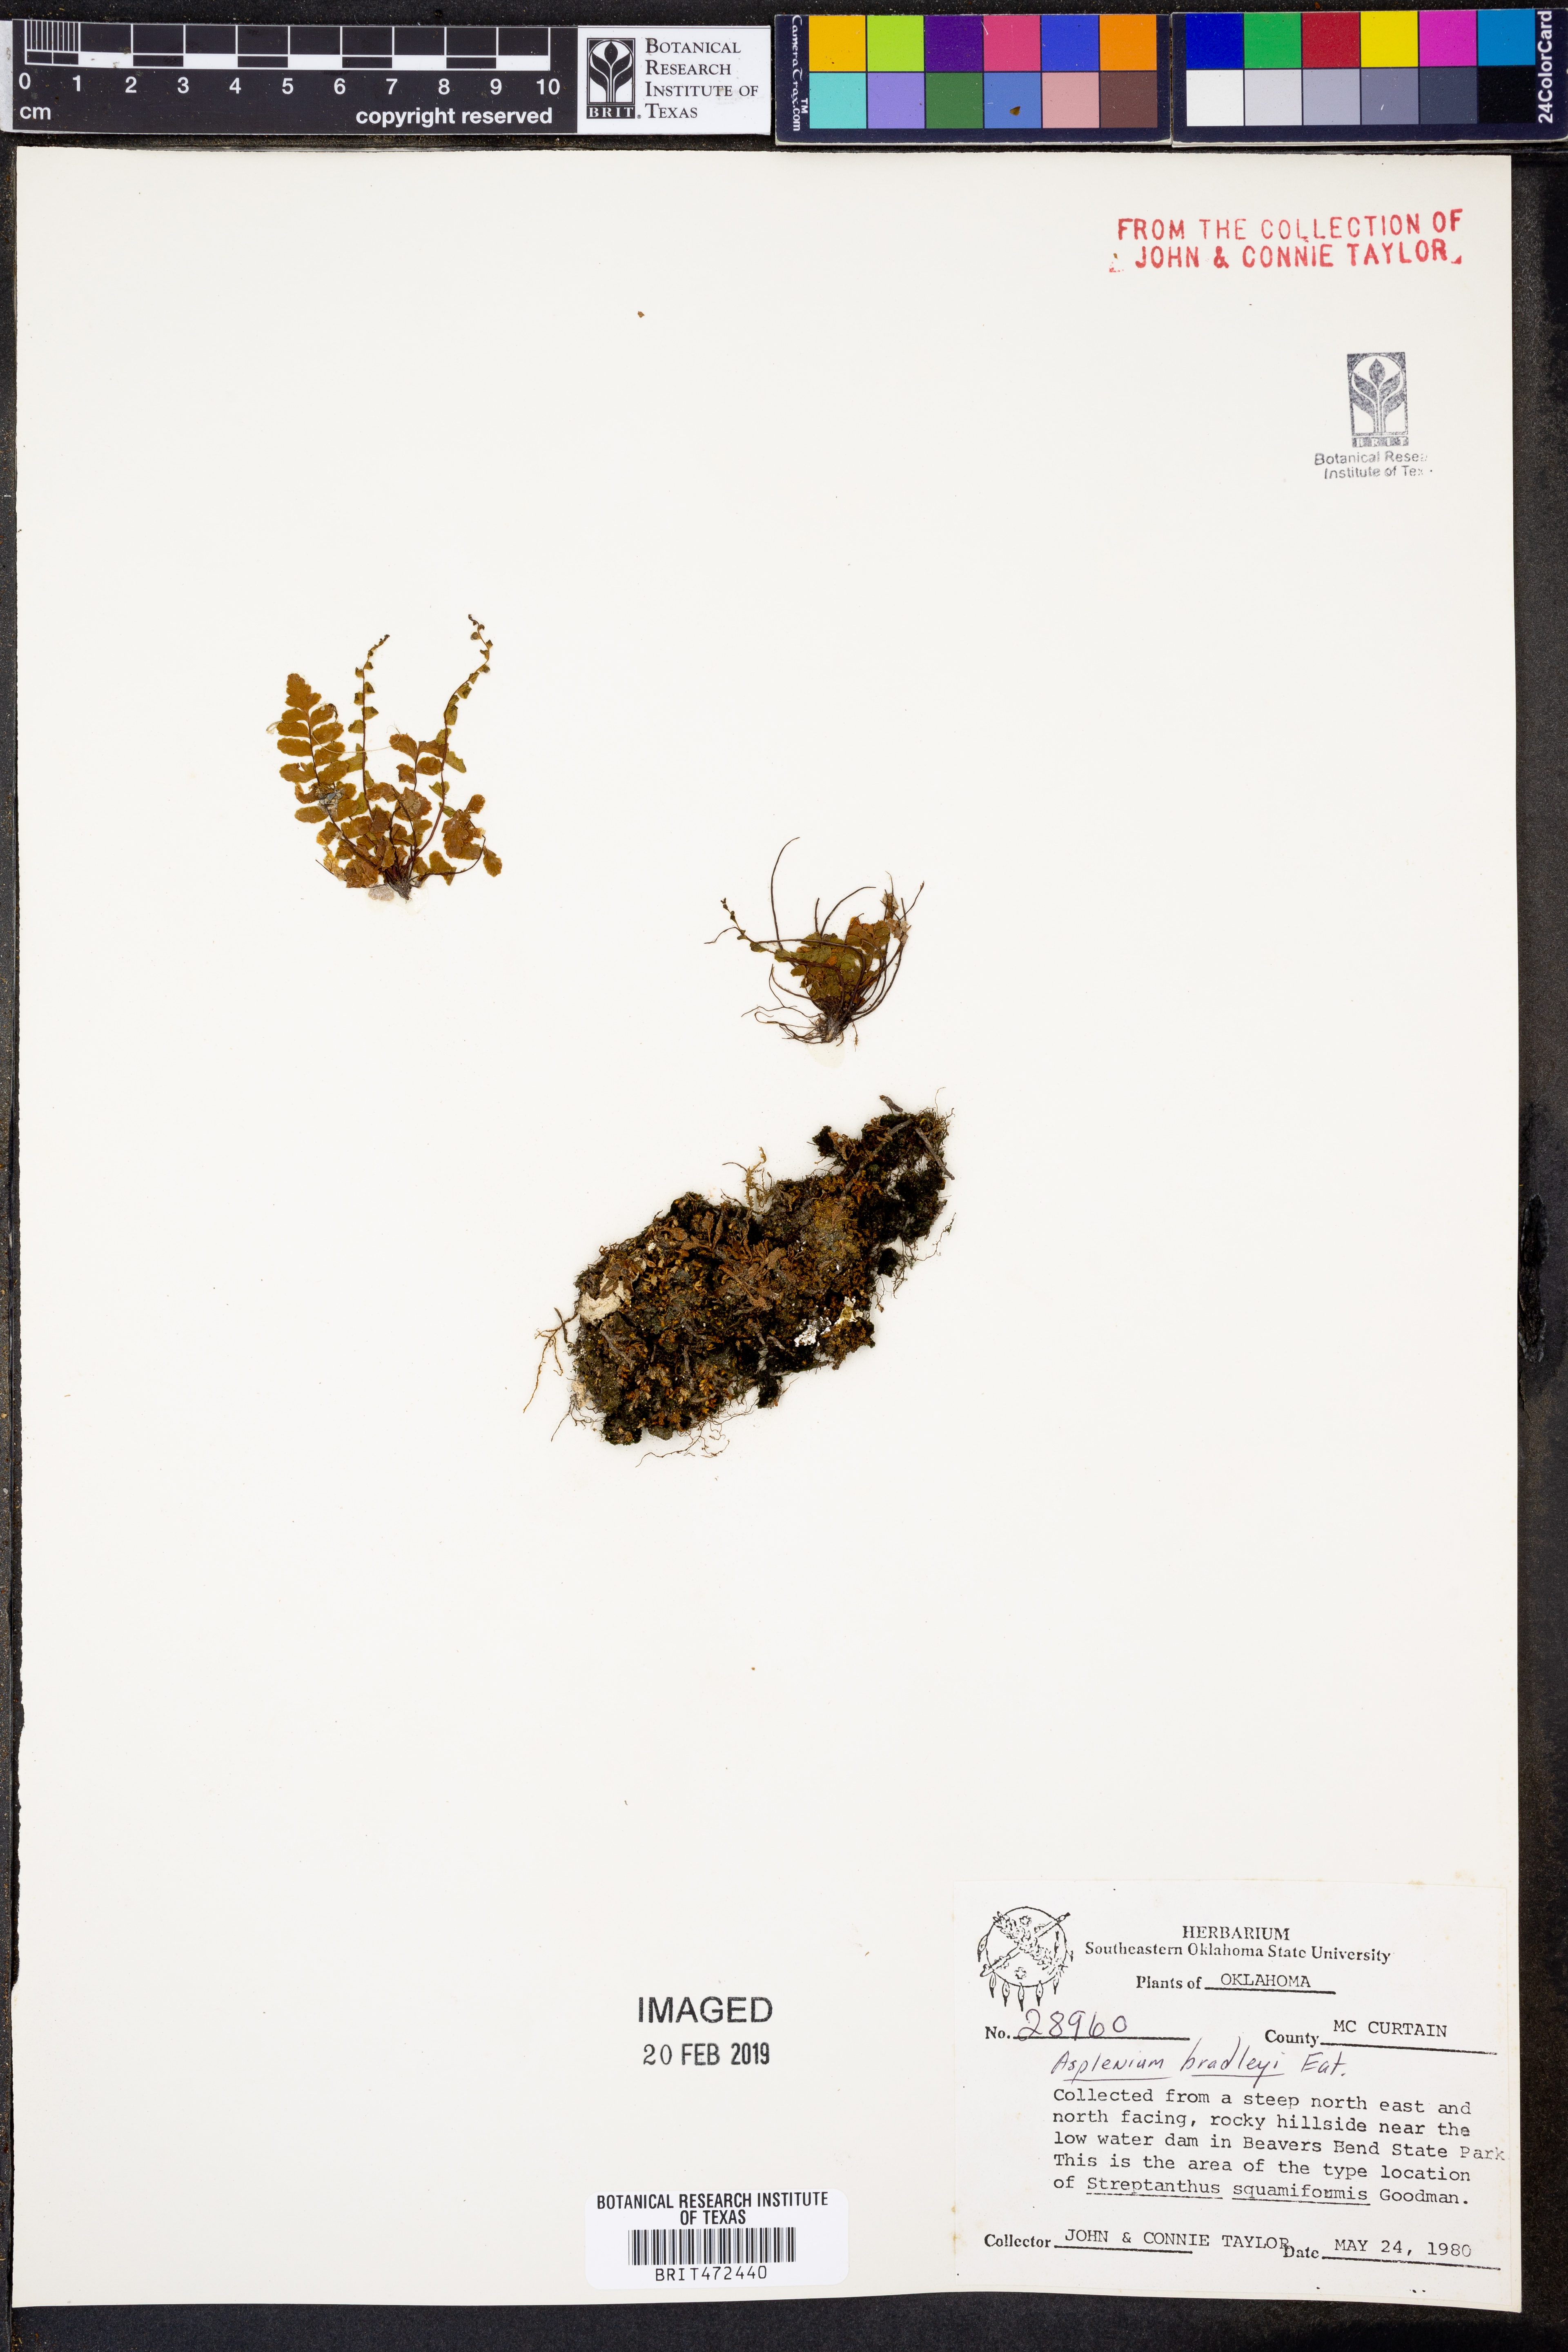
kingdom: Plantae
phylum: Tracheophyta
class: Polypodiopsida
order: Polypodiales
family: Aspleniaceae
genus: Asplenium
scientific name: Asplenium bradleyi
